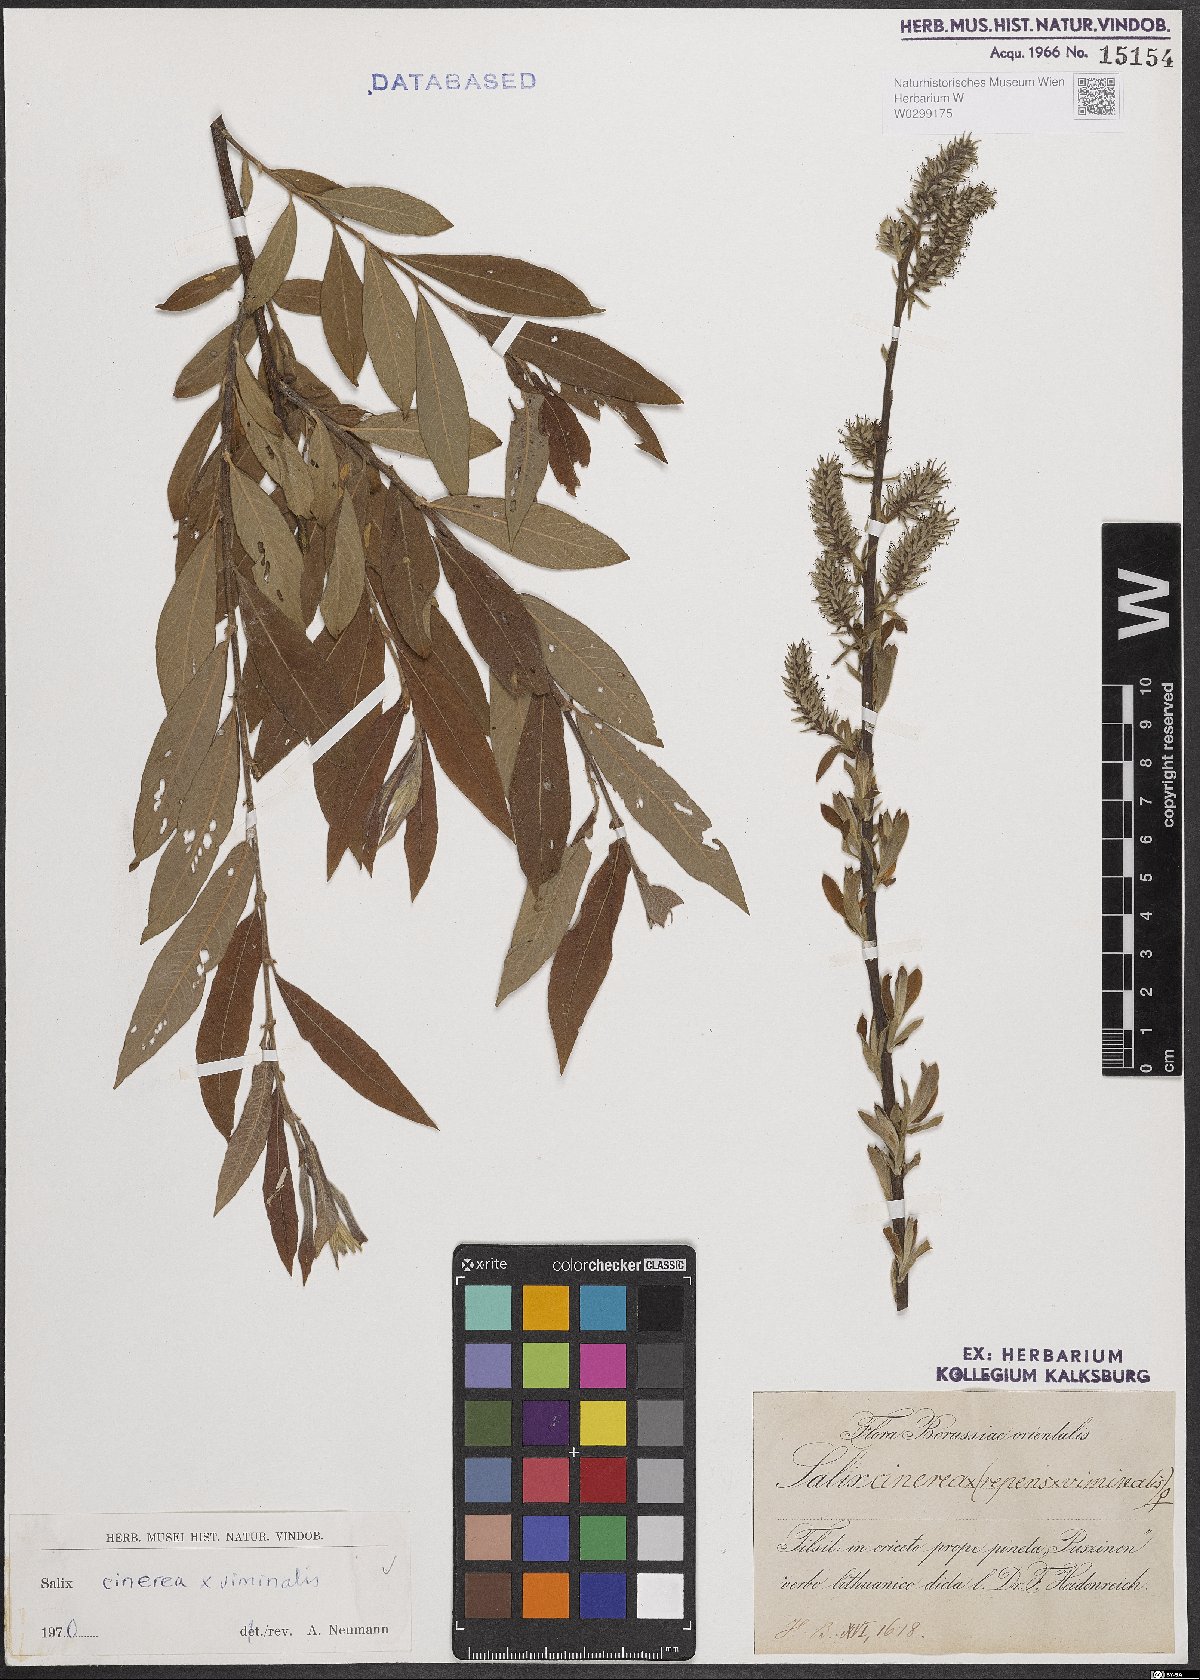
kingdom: Plantae
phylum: Tracheophyta
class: Magnoliopsida
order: Malpighiales
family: Salicaceae
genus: Salix
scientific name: Salix
